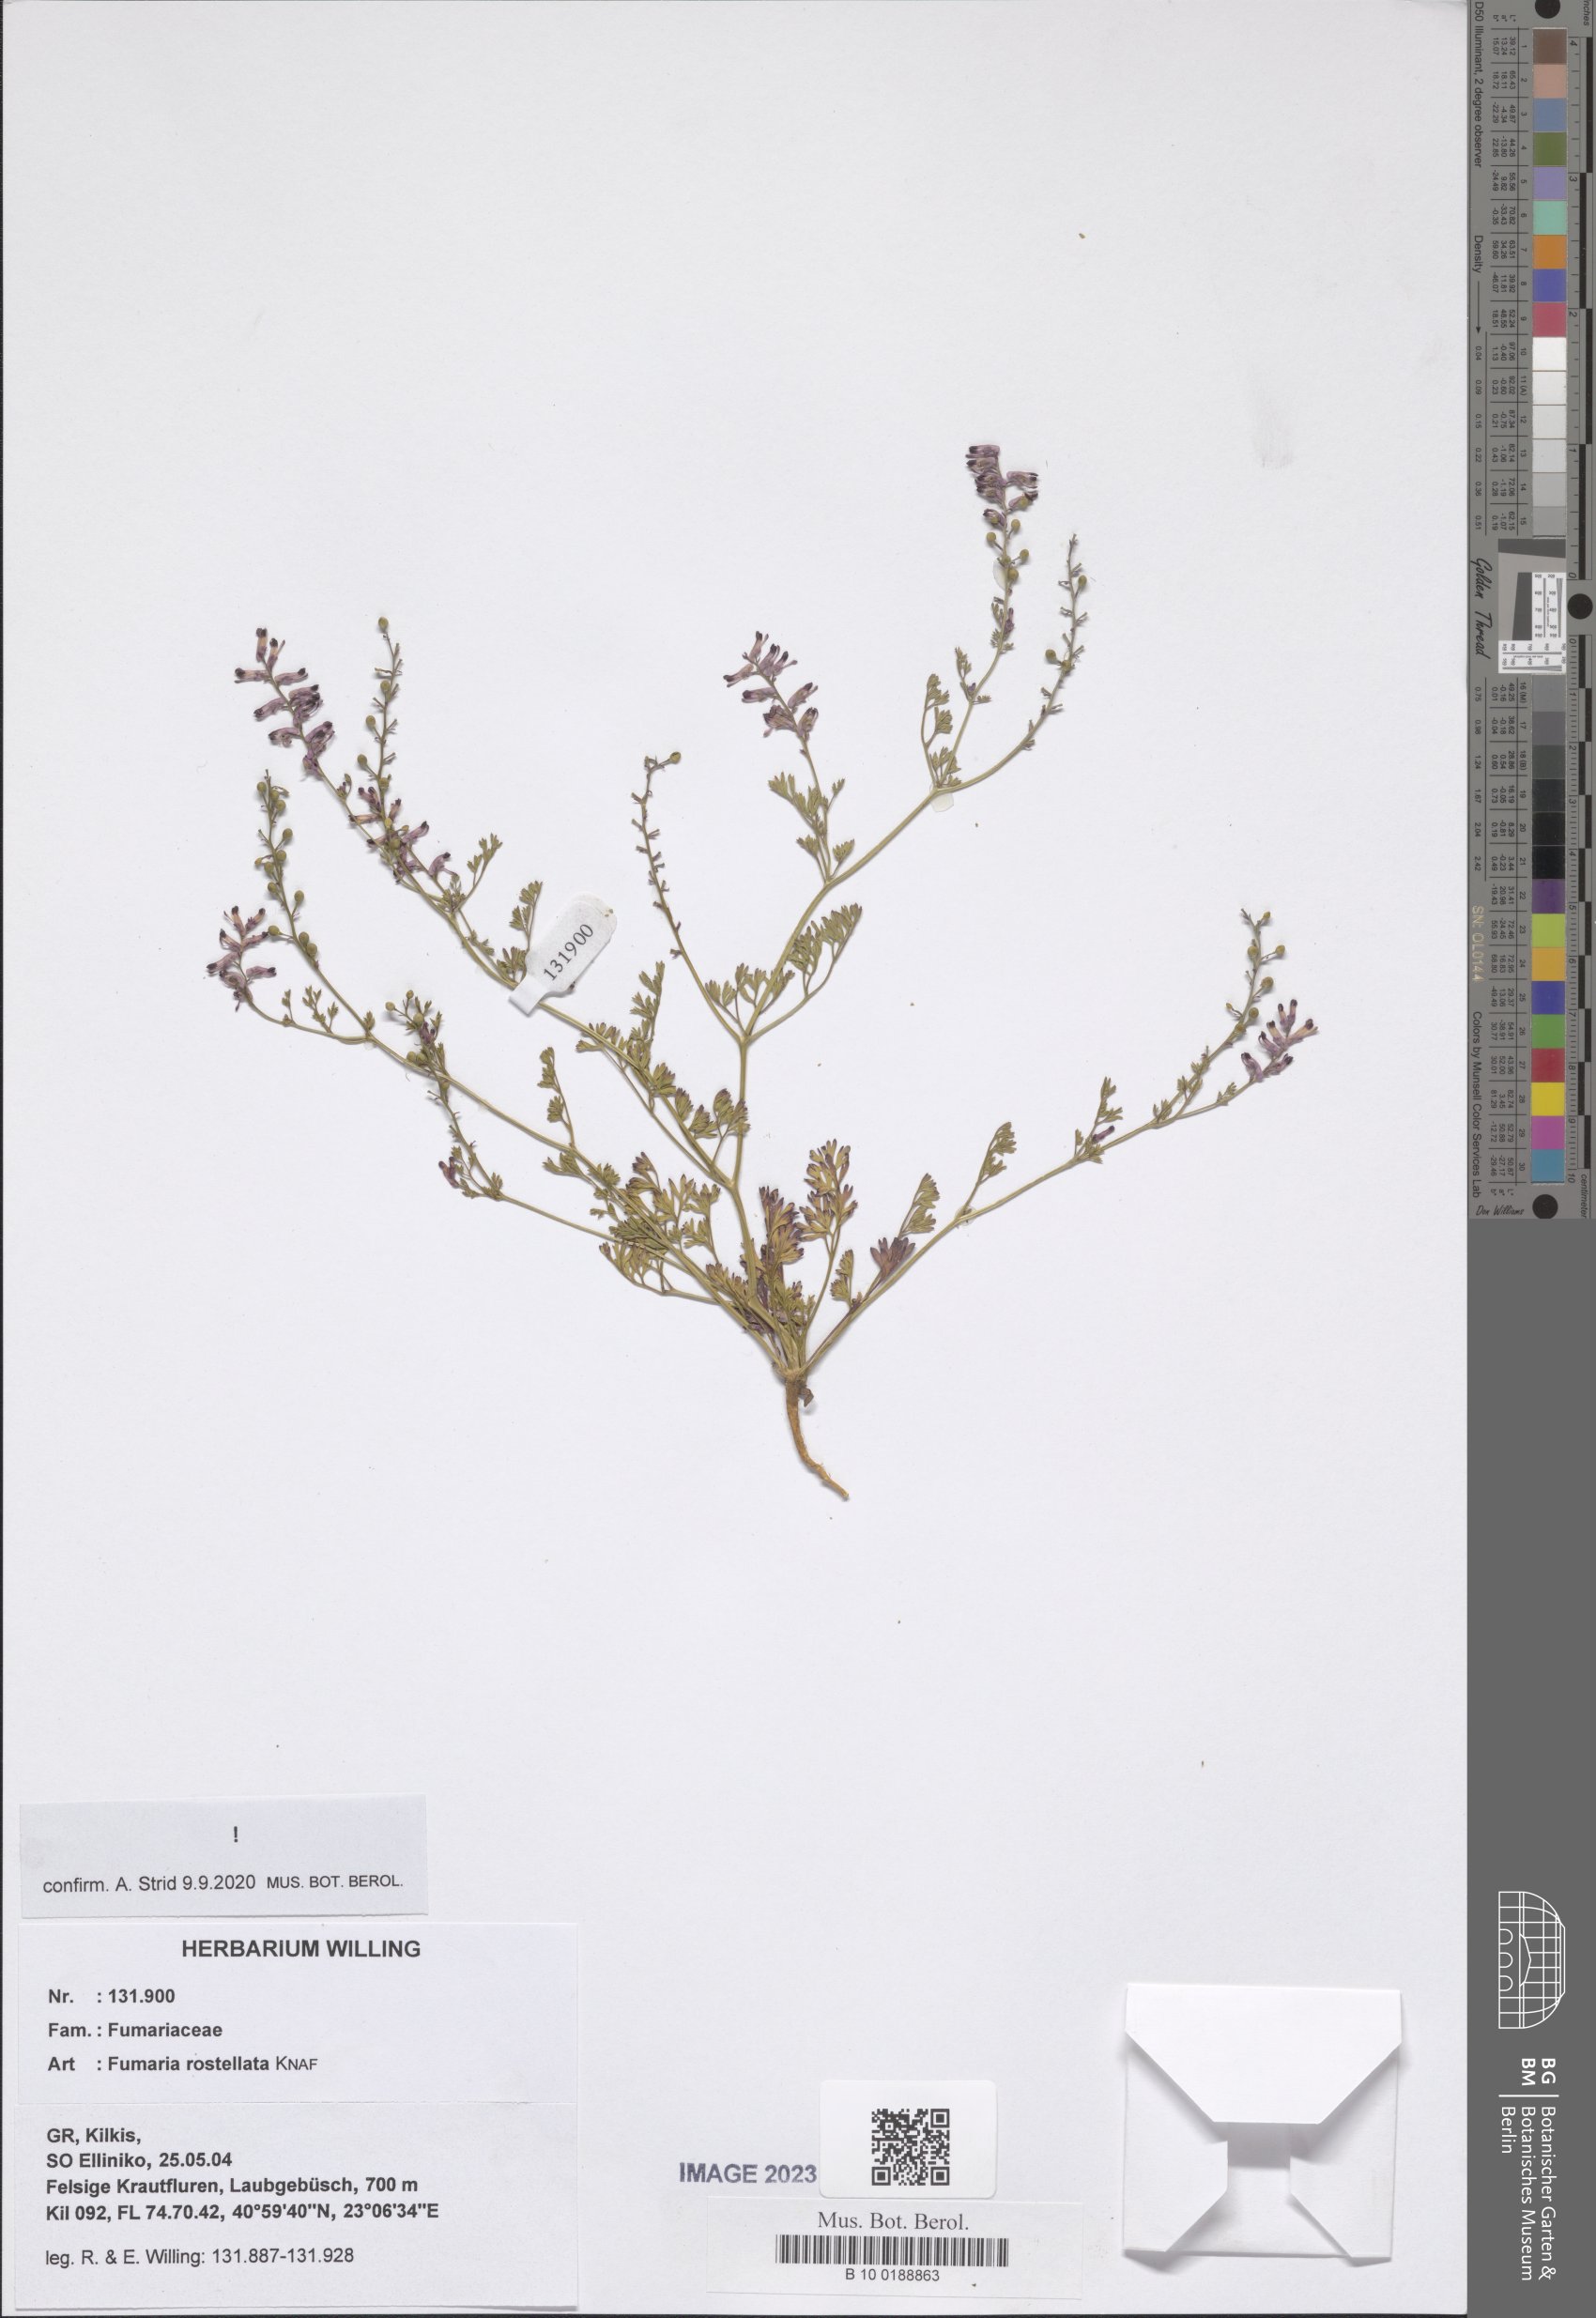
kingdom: Plantae
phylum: Tracheophyta
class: Magnoliopsida
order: Ranunculales
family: Papaveraceae
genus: Fumaria
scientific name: Fumaria rostellata
